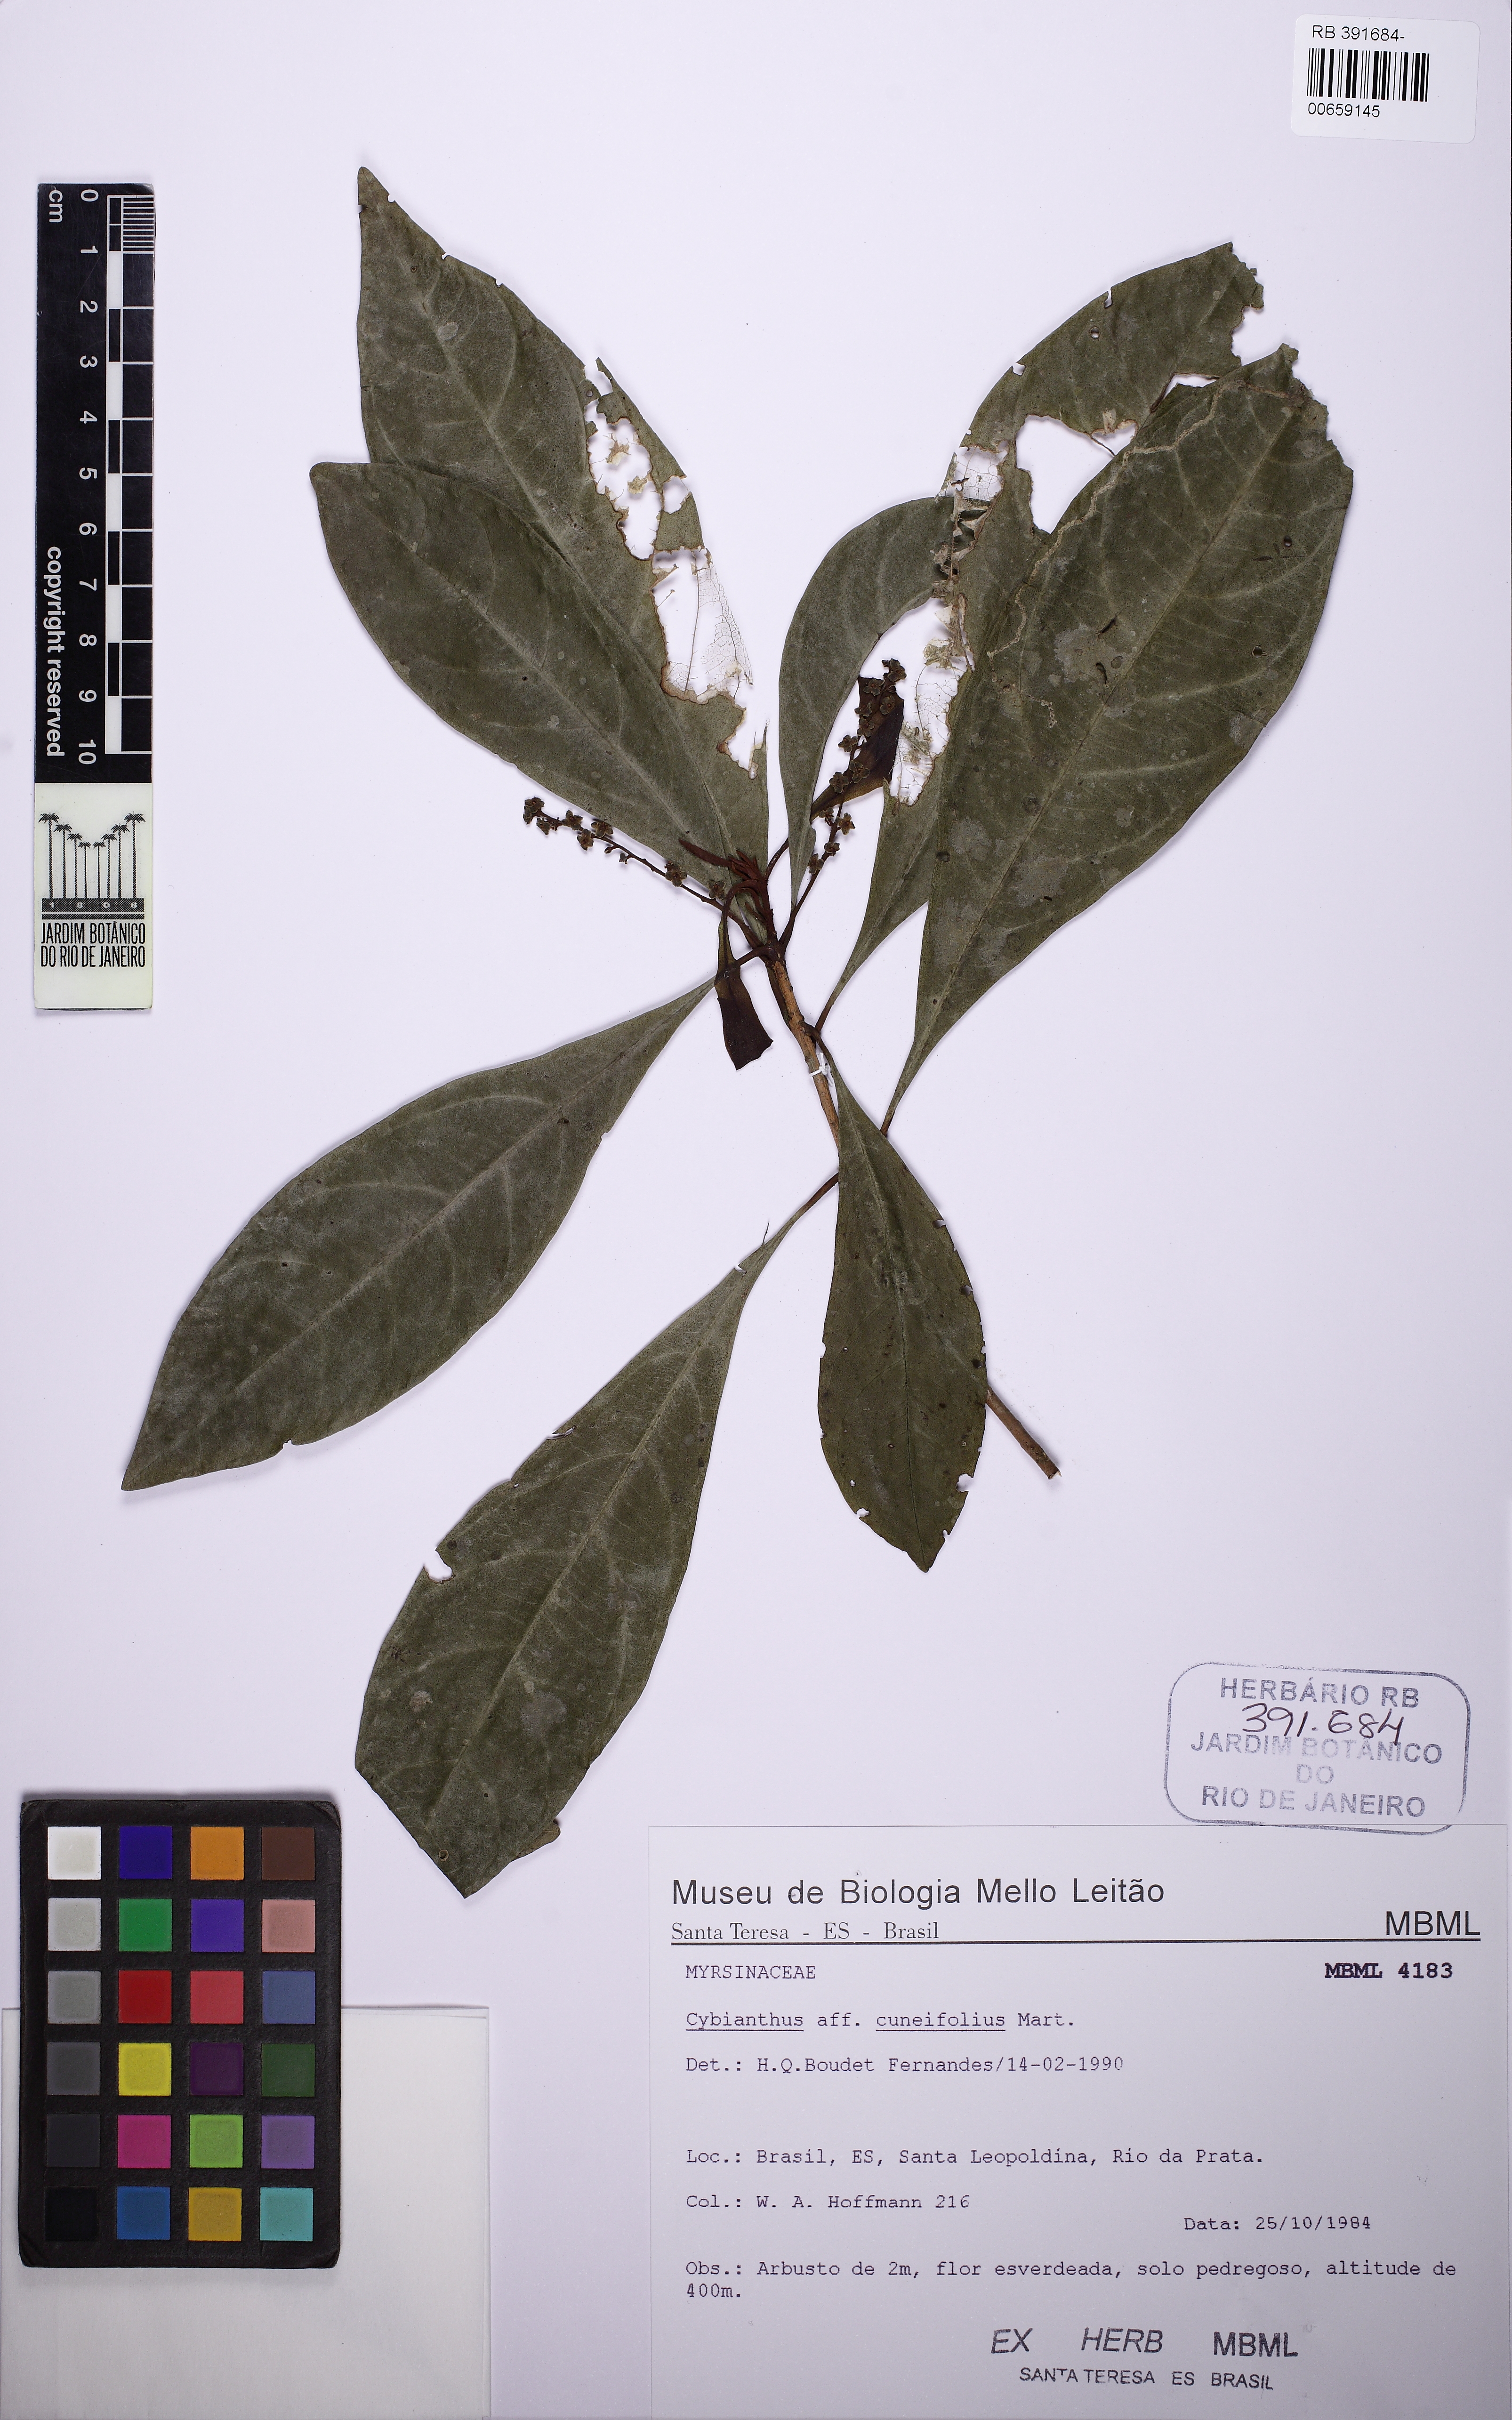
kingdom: Plantae
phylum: Tracheophyta
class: Magnoliopsida
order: Ericales
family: Primulaceae
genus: Cybianthus
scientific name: Cybianthus pastensis
